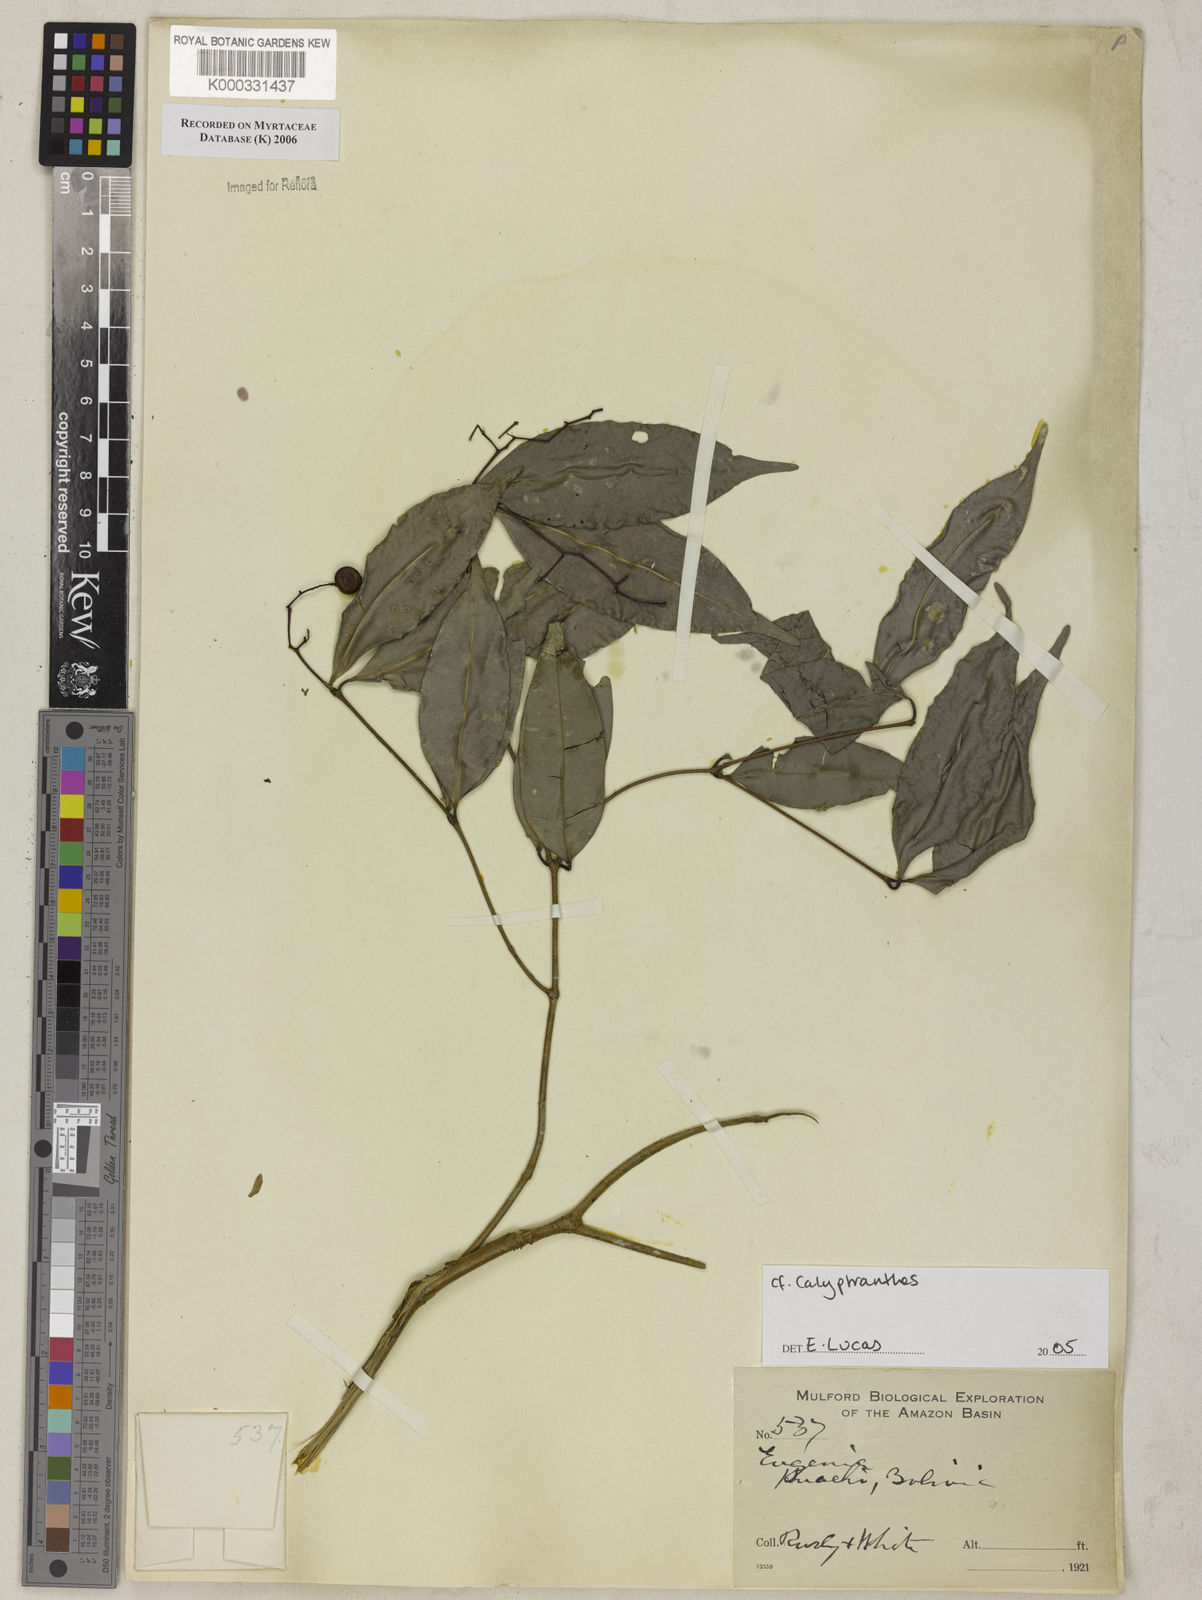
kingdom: Plantae
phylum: Tracheophyta
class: Magnoliopsida
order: Myrtales
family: Myrtaceae
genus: Calyptranthes
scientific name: Calyptranthes
